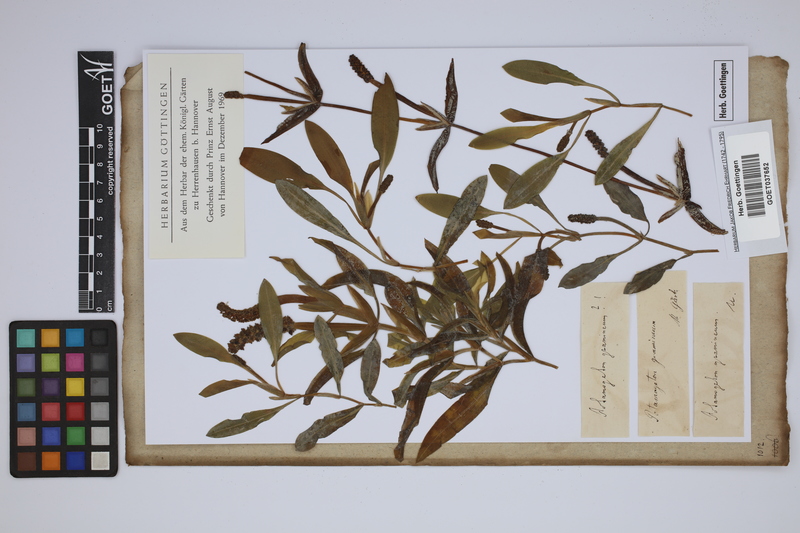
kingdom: Plantae
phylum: Tracheophyta
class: Liliopsida
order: Alismatales
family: Potamogetonaceae
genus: Potamogeton
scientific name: Potamogeton gramineus
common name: Various-leaved pondweed
